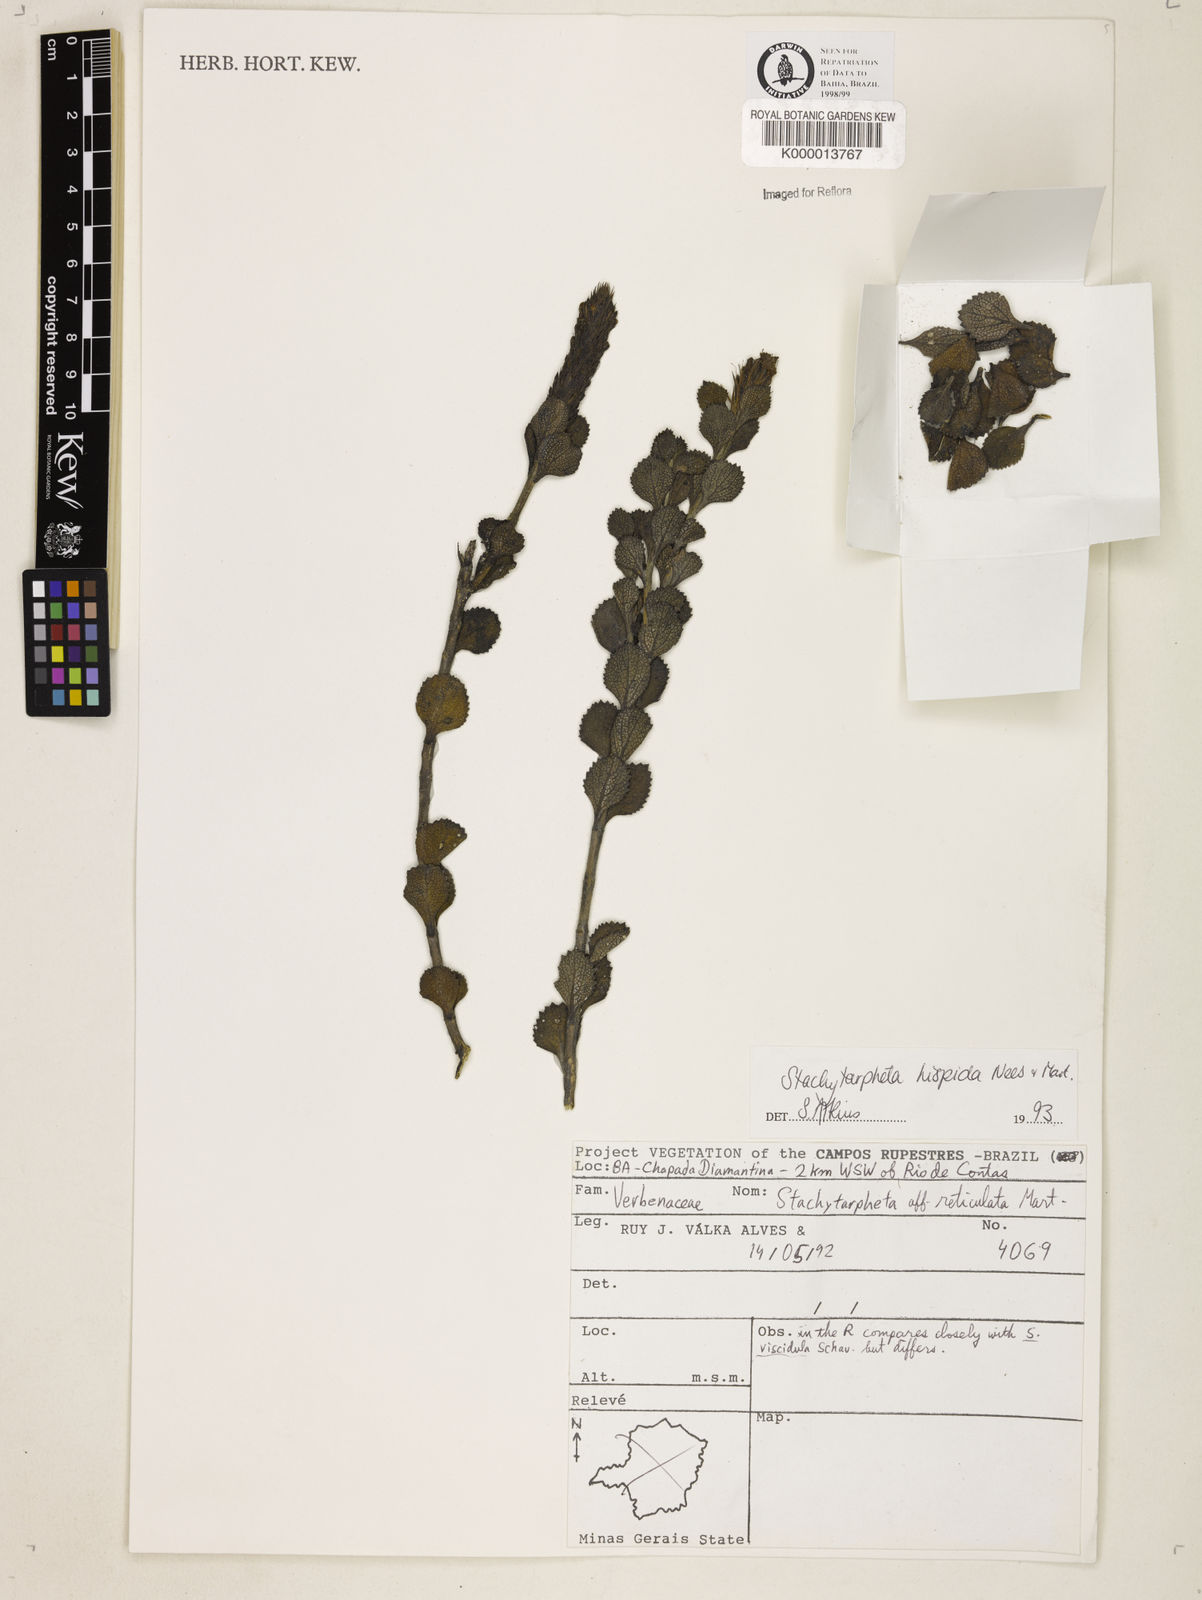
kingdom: Plantae
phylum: Tracheophyta
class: Magnoliopsida
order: Lamiales
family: Verbenaceae
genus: Stachytarpheta
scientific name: Stachytarpheta hispida
